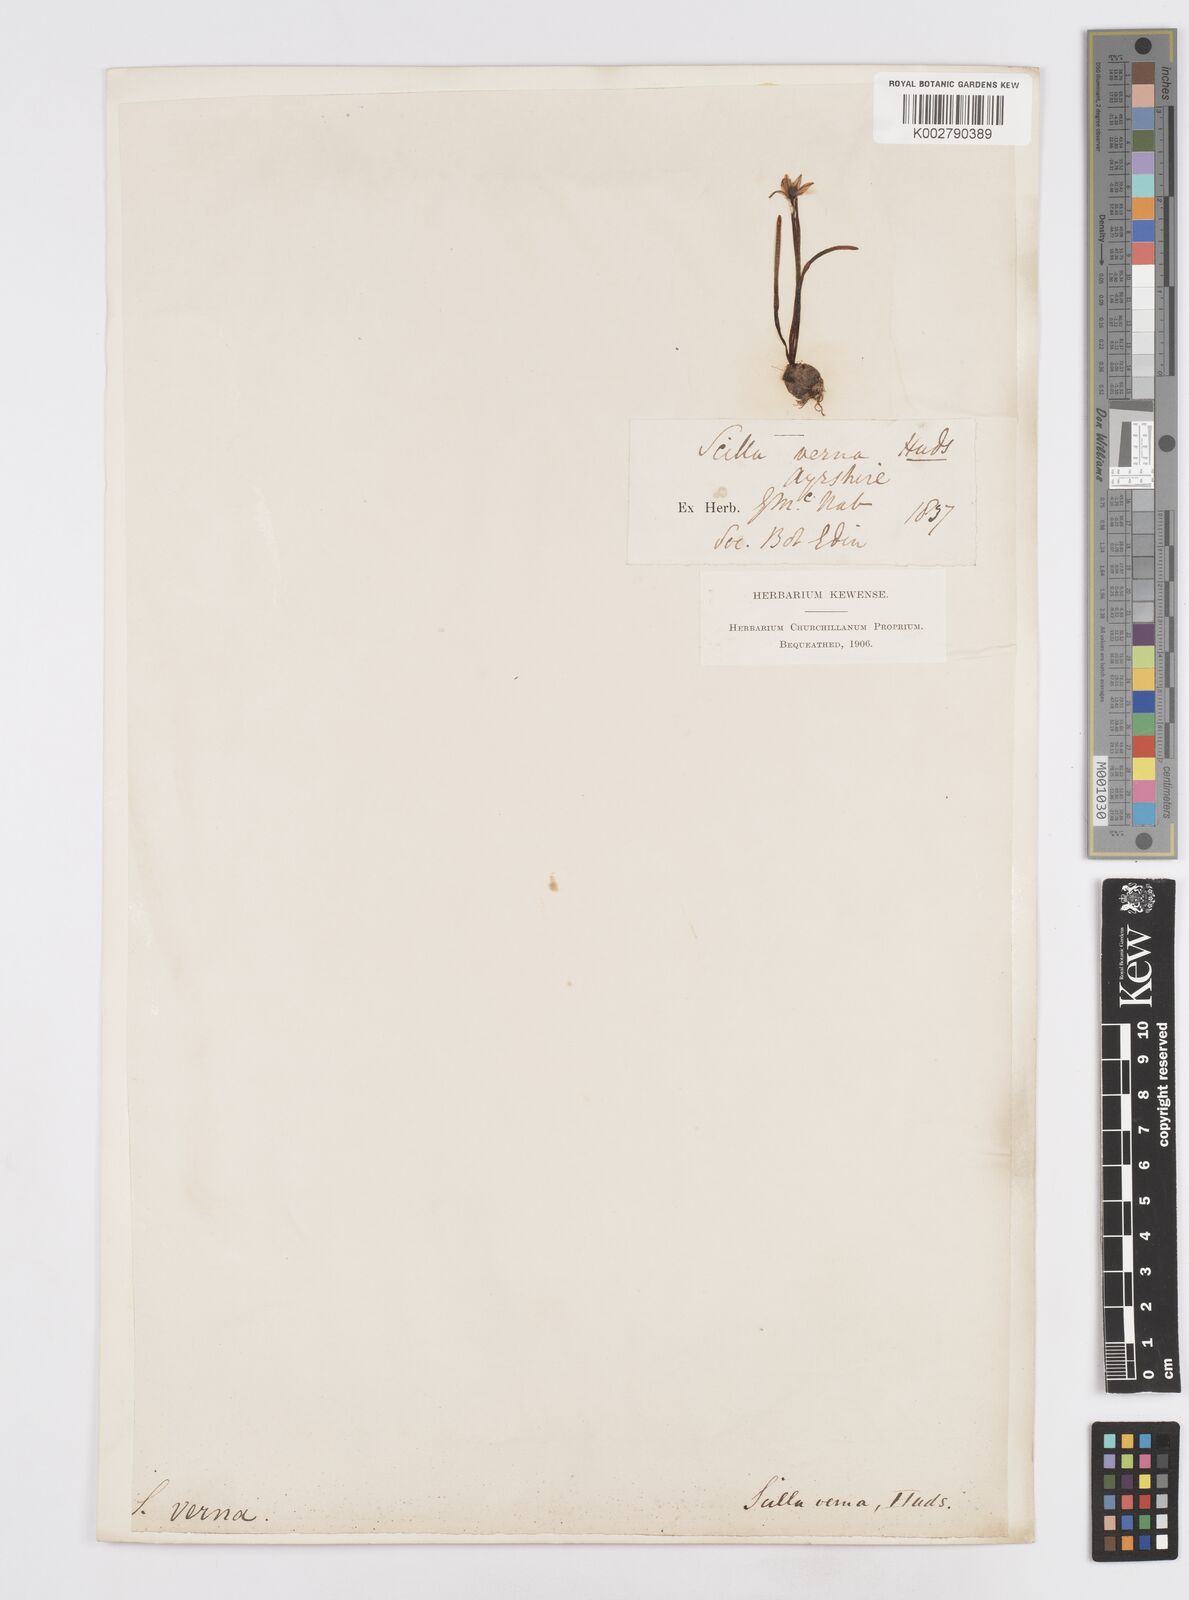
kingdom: Plantae
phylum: Tracheophyta
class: Liliopsida
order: Asparagales
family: Asparagaceae
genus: Scilla
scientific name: Scilla verna
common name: Spring squill
